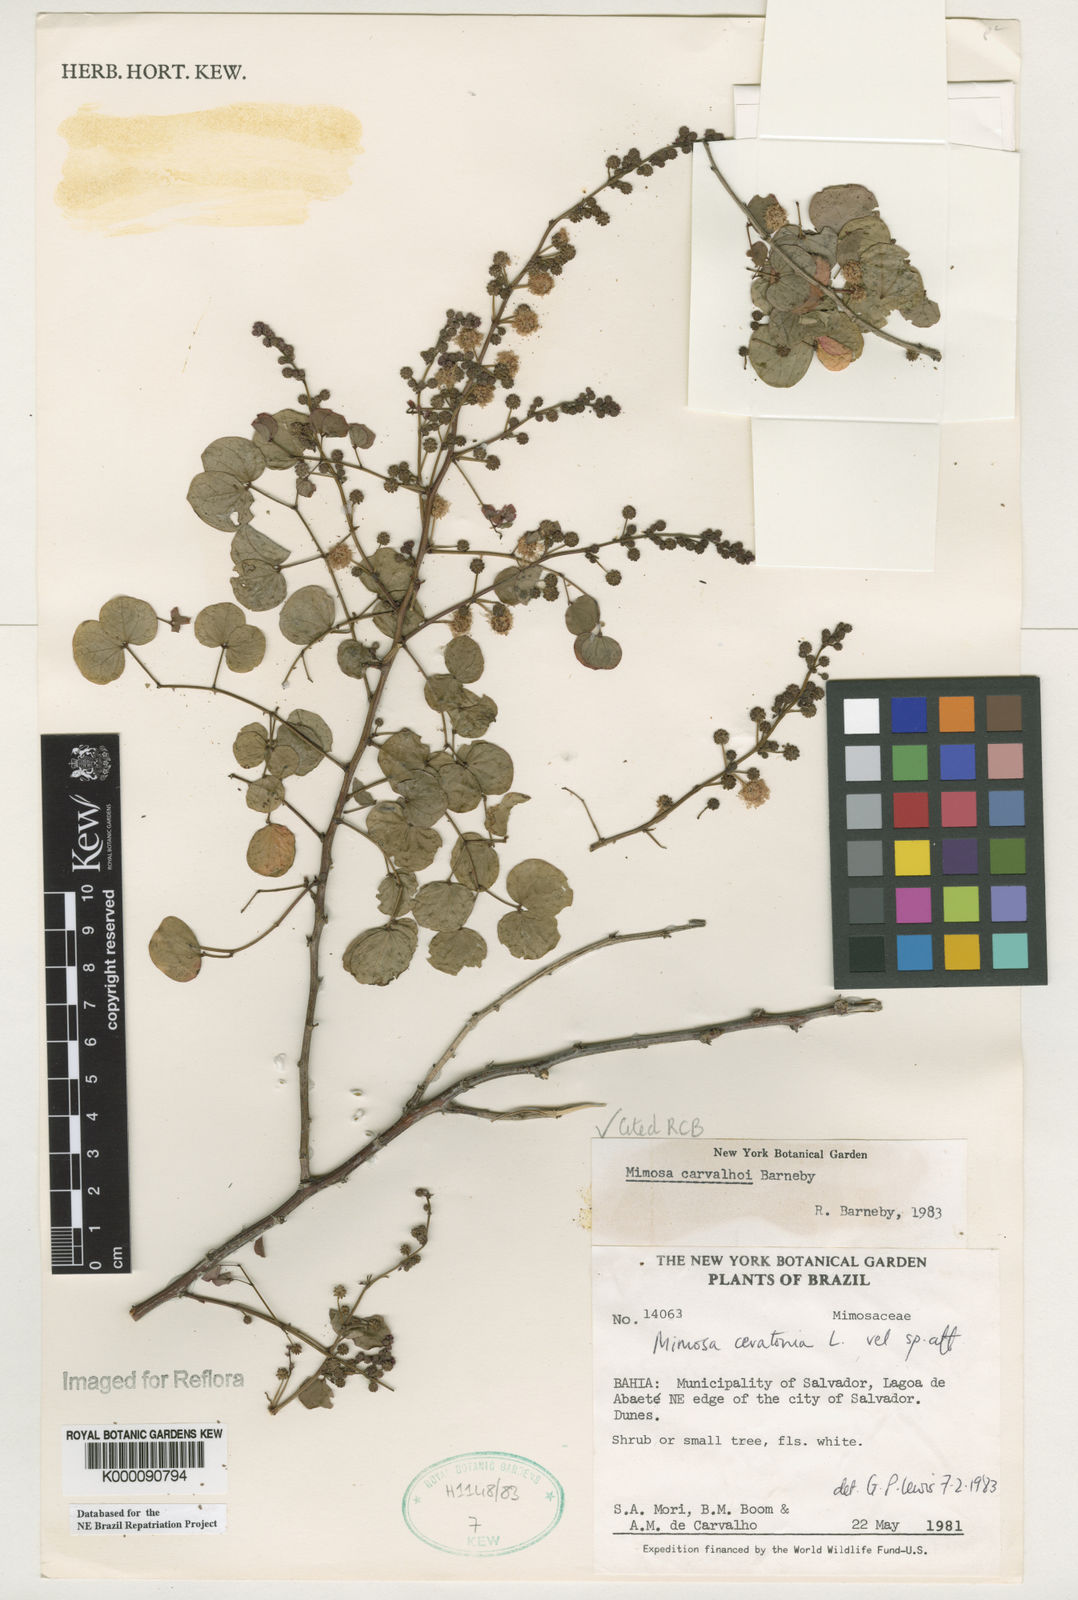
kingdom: Plantae
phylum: Tracheophyta
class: Magnoliopsida
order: Fabales
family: Fabaceae
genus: Mimosa
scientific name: Mimosa carvalhoi
